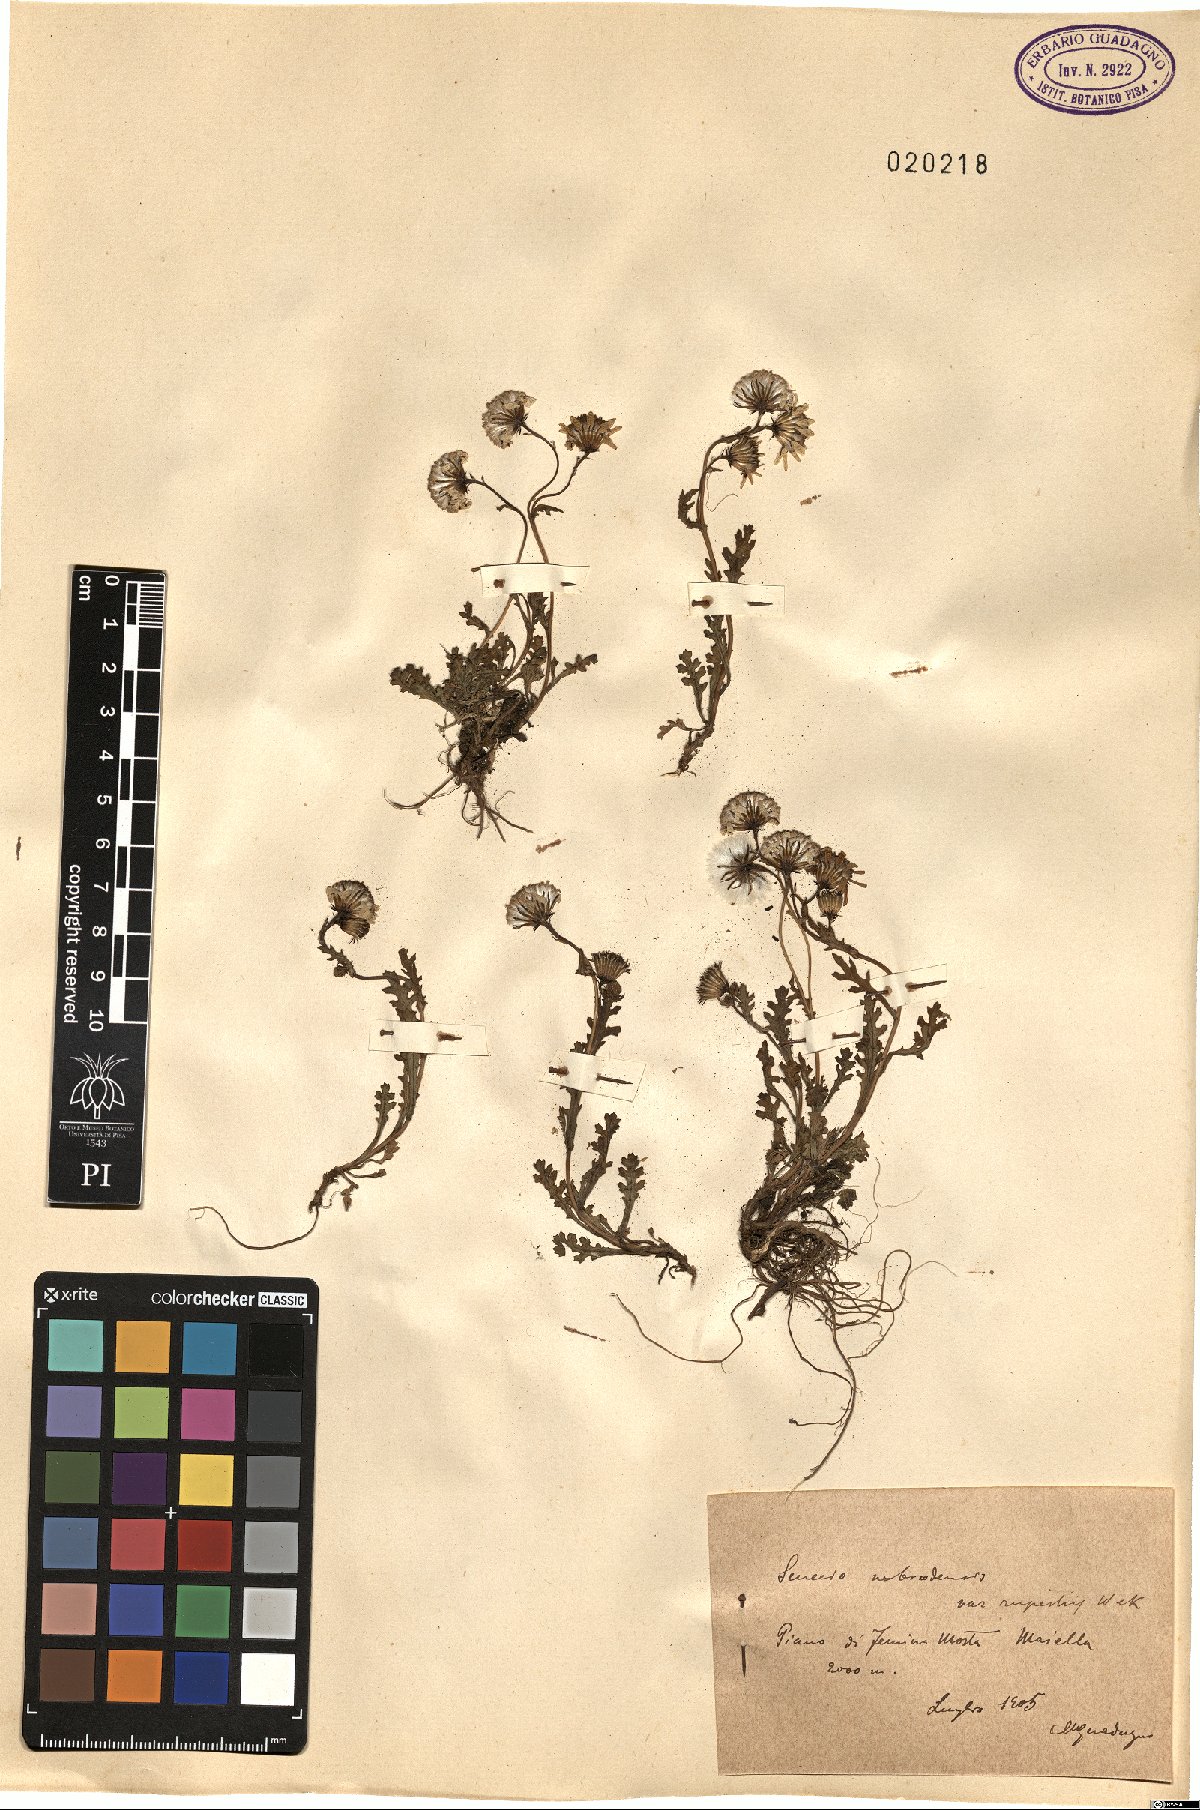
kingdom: Plantae
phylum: Tracheophyta
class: Magnoliopsida
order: Asterales
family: Asteraceae
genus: Senecio
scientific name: Senecio rupestris
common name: Rock ragwort
